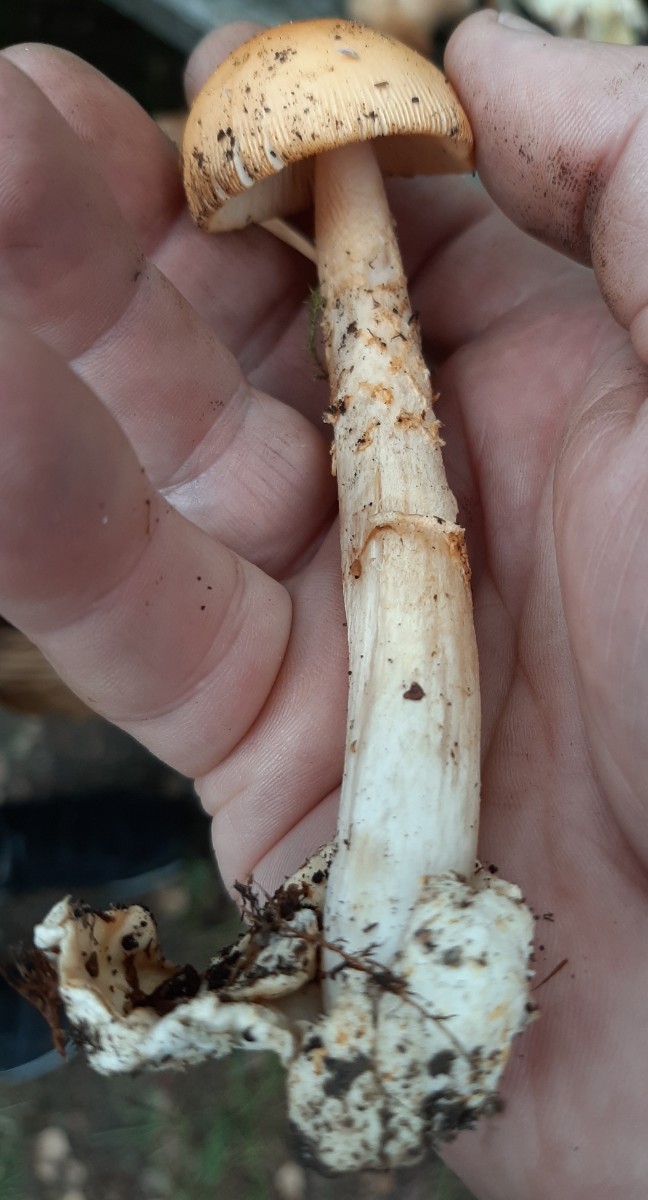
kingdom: Fungi
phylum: Basidiomycota
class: Agaricomycetes
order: Agaricales
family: Amanitaceae
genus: Amanita
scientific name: Amanita crocea
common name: gylden kam-fluesvamp
